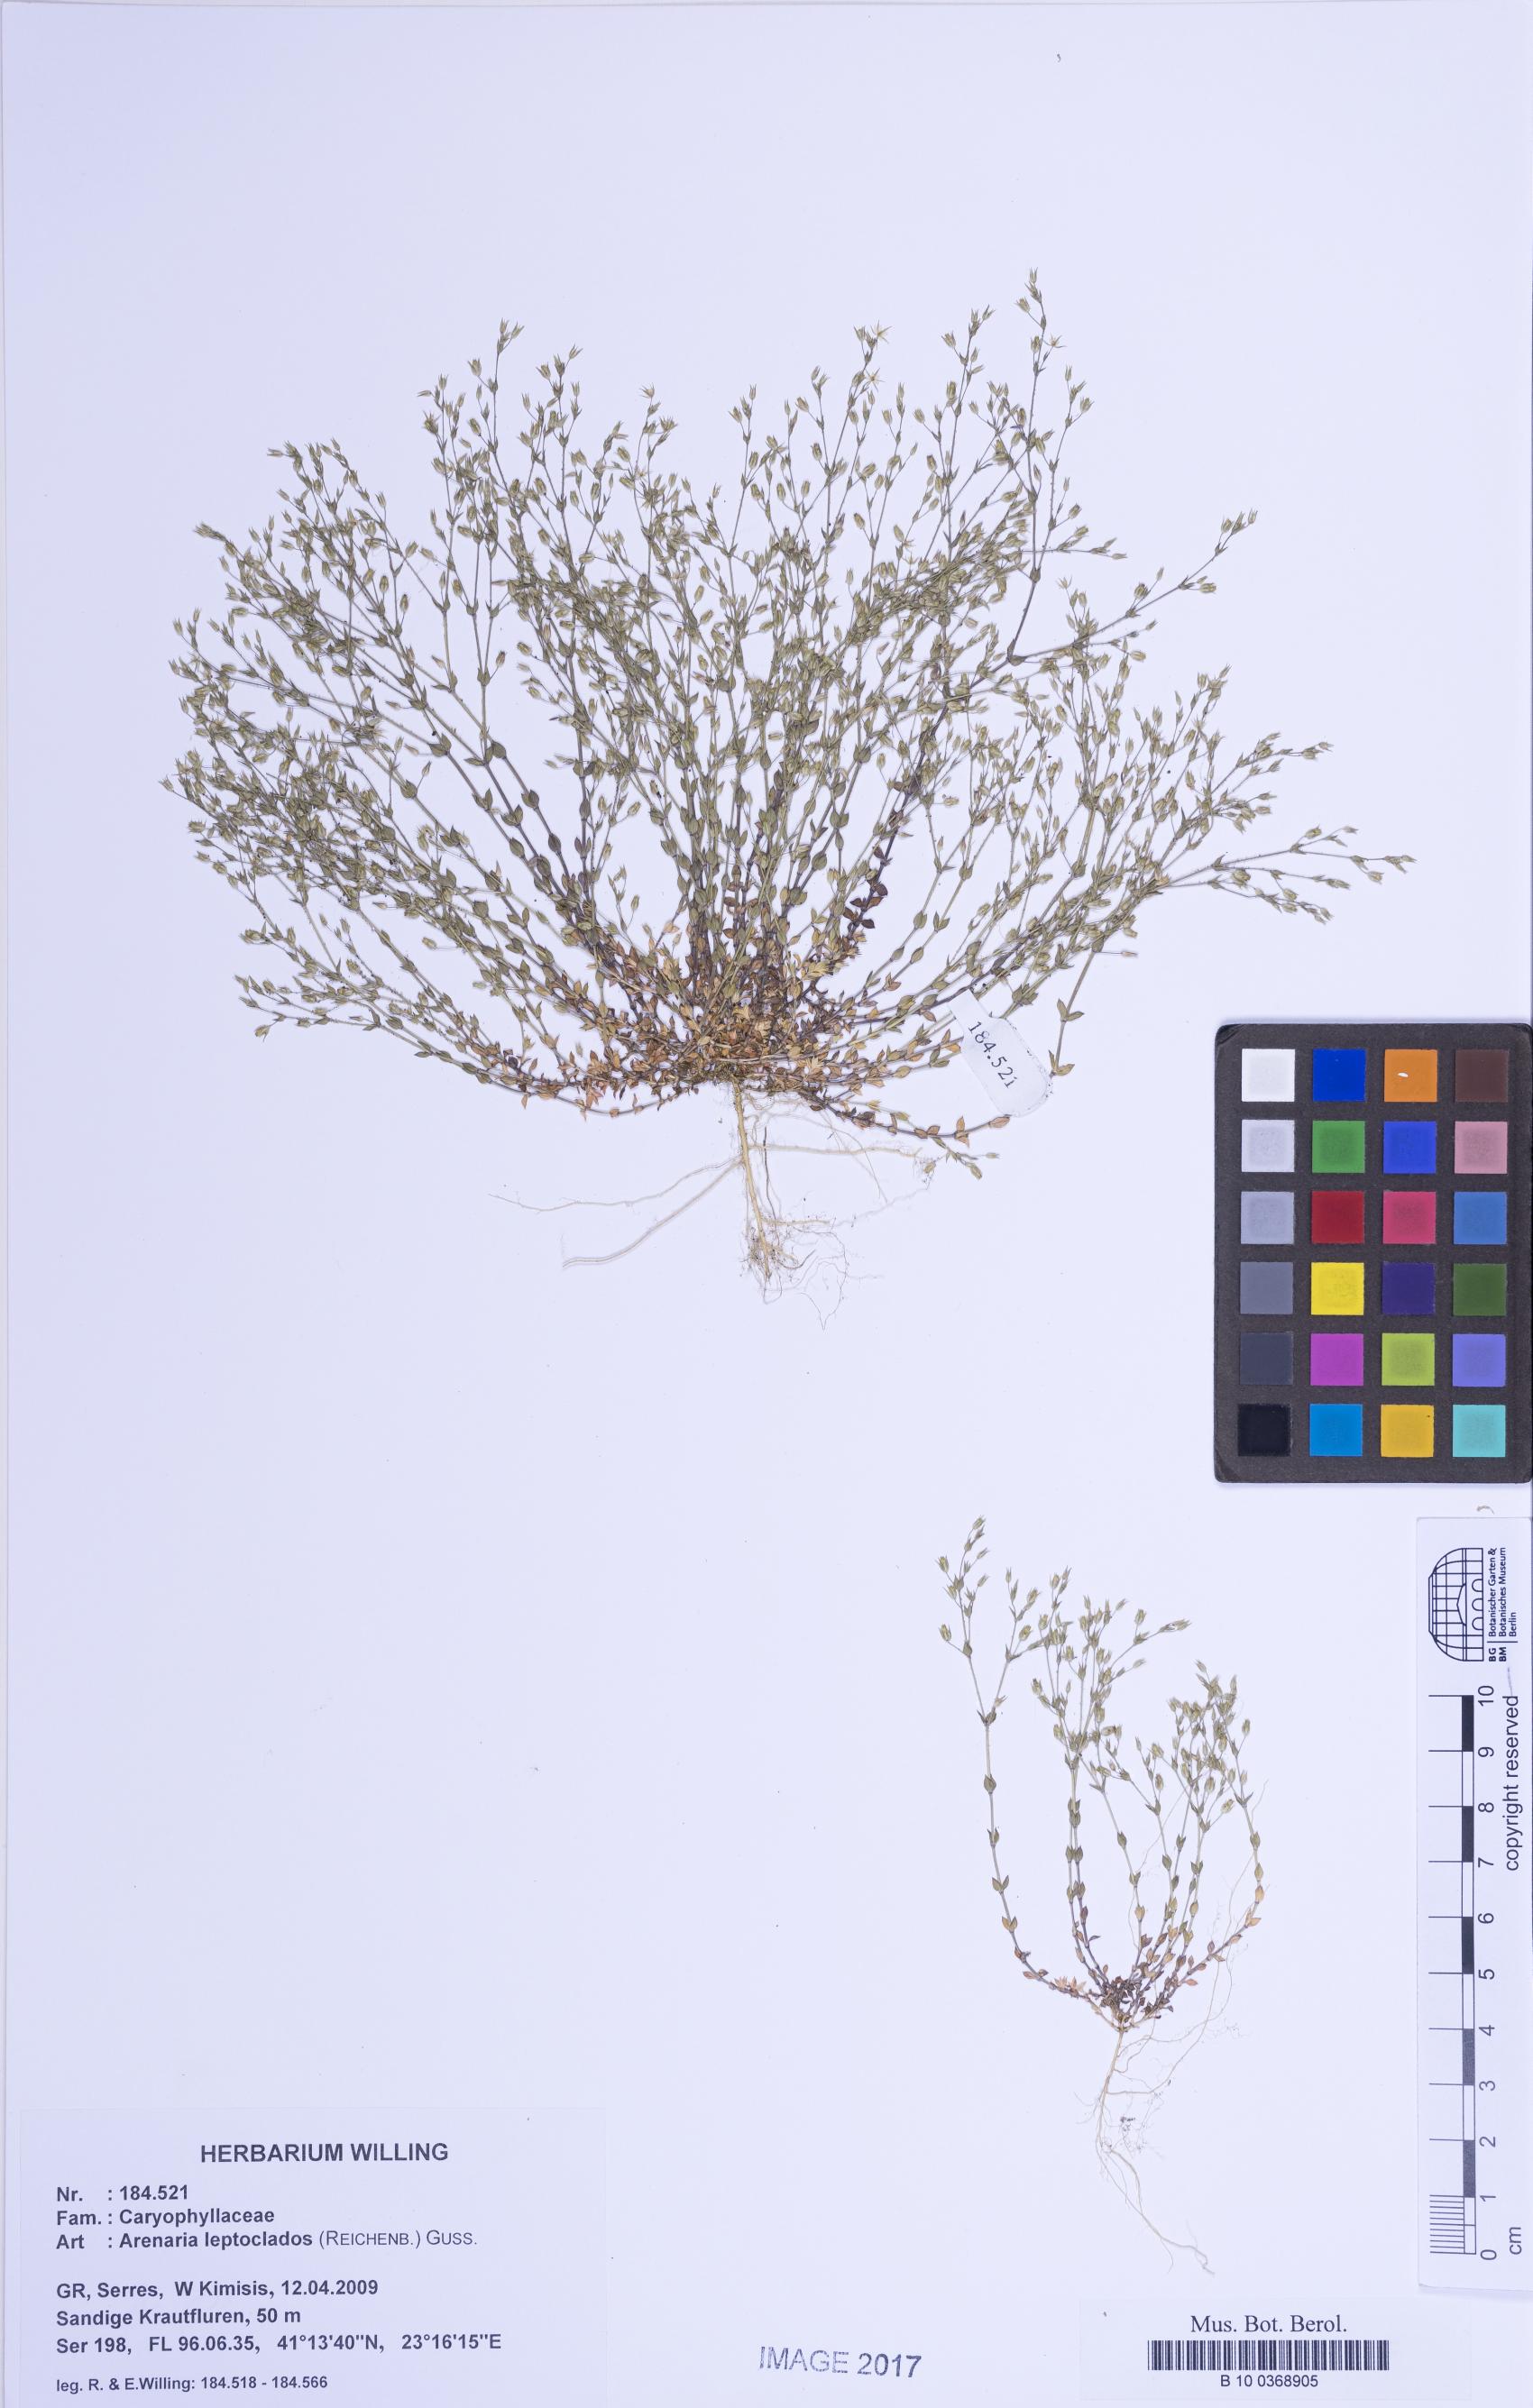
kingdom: Plantae
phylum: Tracheophyta
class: Magnoliopsida
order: Caryophyllales
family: Caryophyllaceae
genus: Arenaria
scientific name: Arenaria leptoclados
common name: Thyme-leaved sandwort
